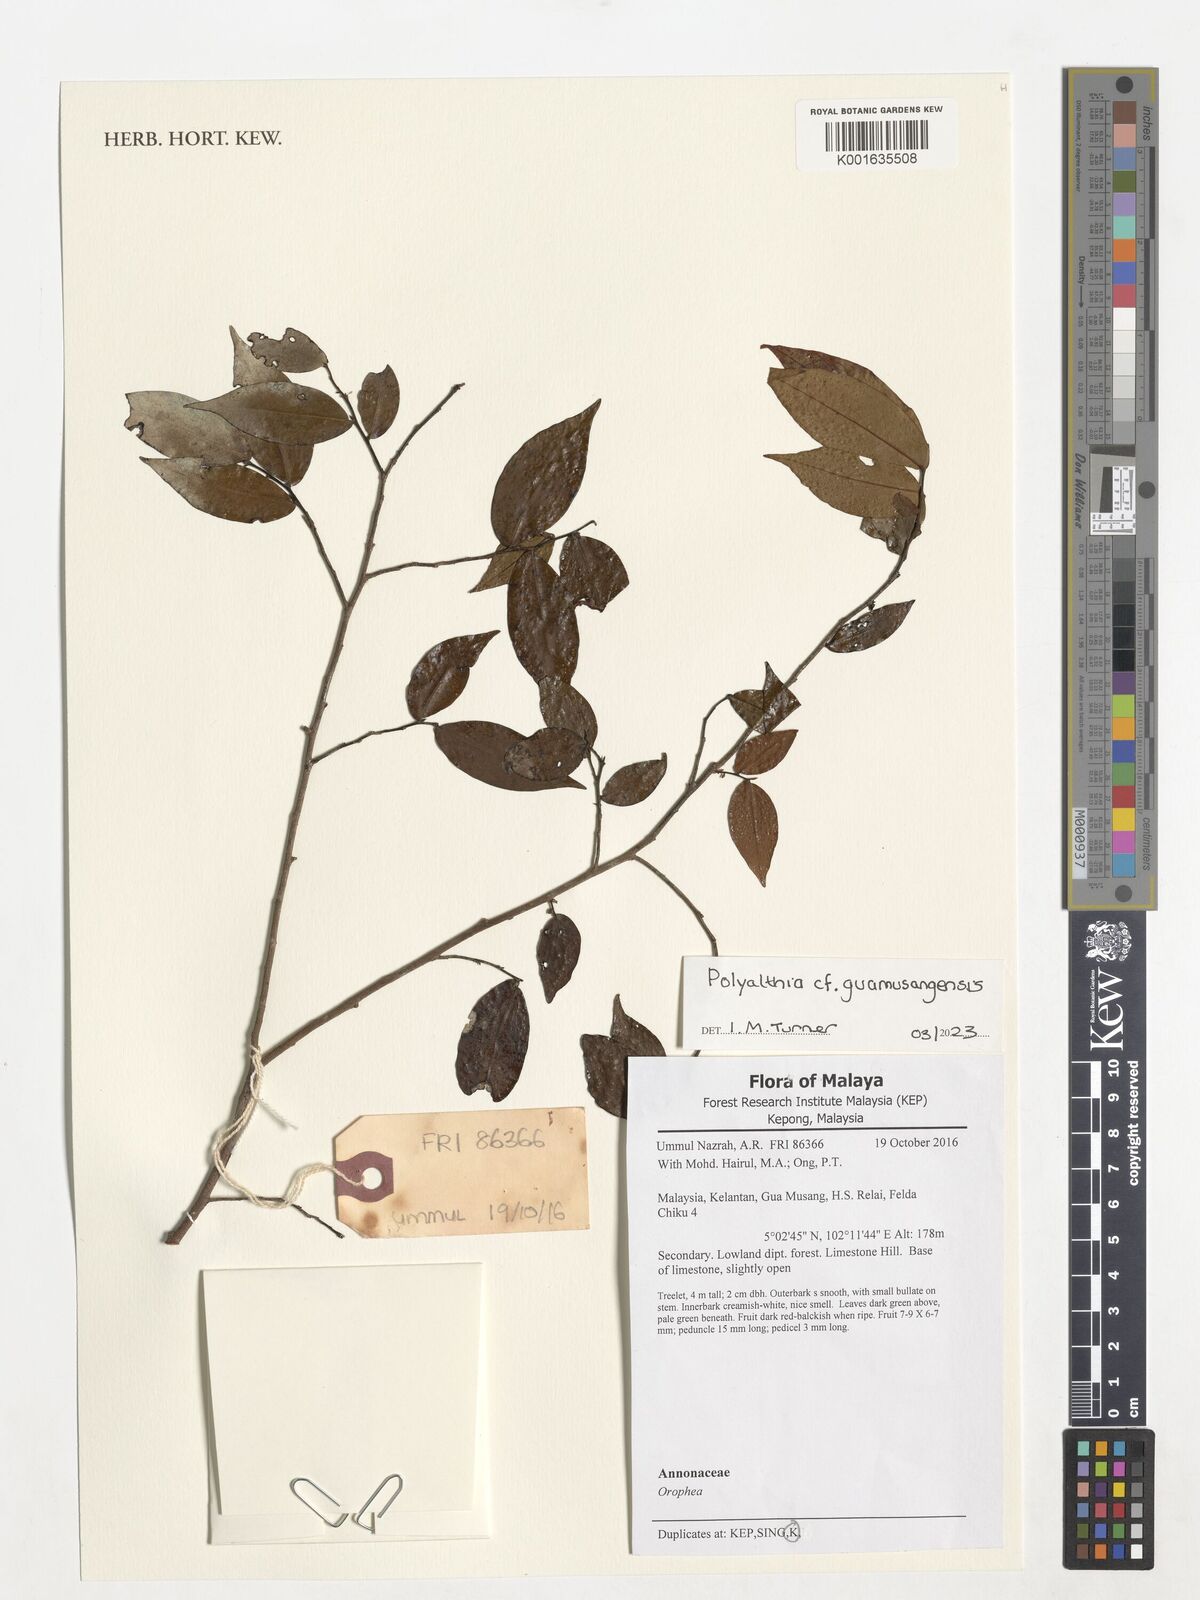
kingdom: Plantae
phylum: Tracheophyta
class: Magnoliopsida
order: Magnoliales
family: Annonaceae
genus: Polyalthia
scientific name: Polyalthia guamusangensis
